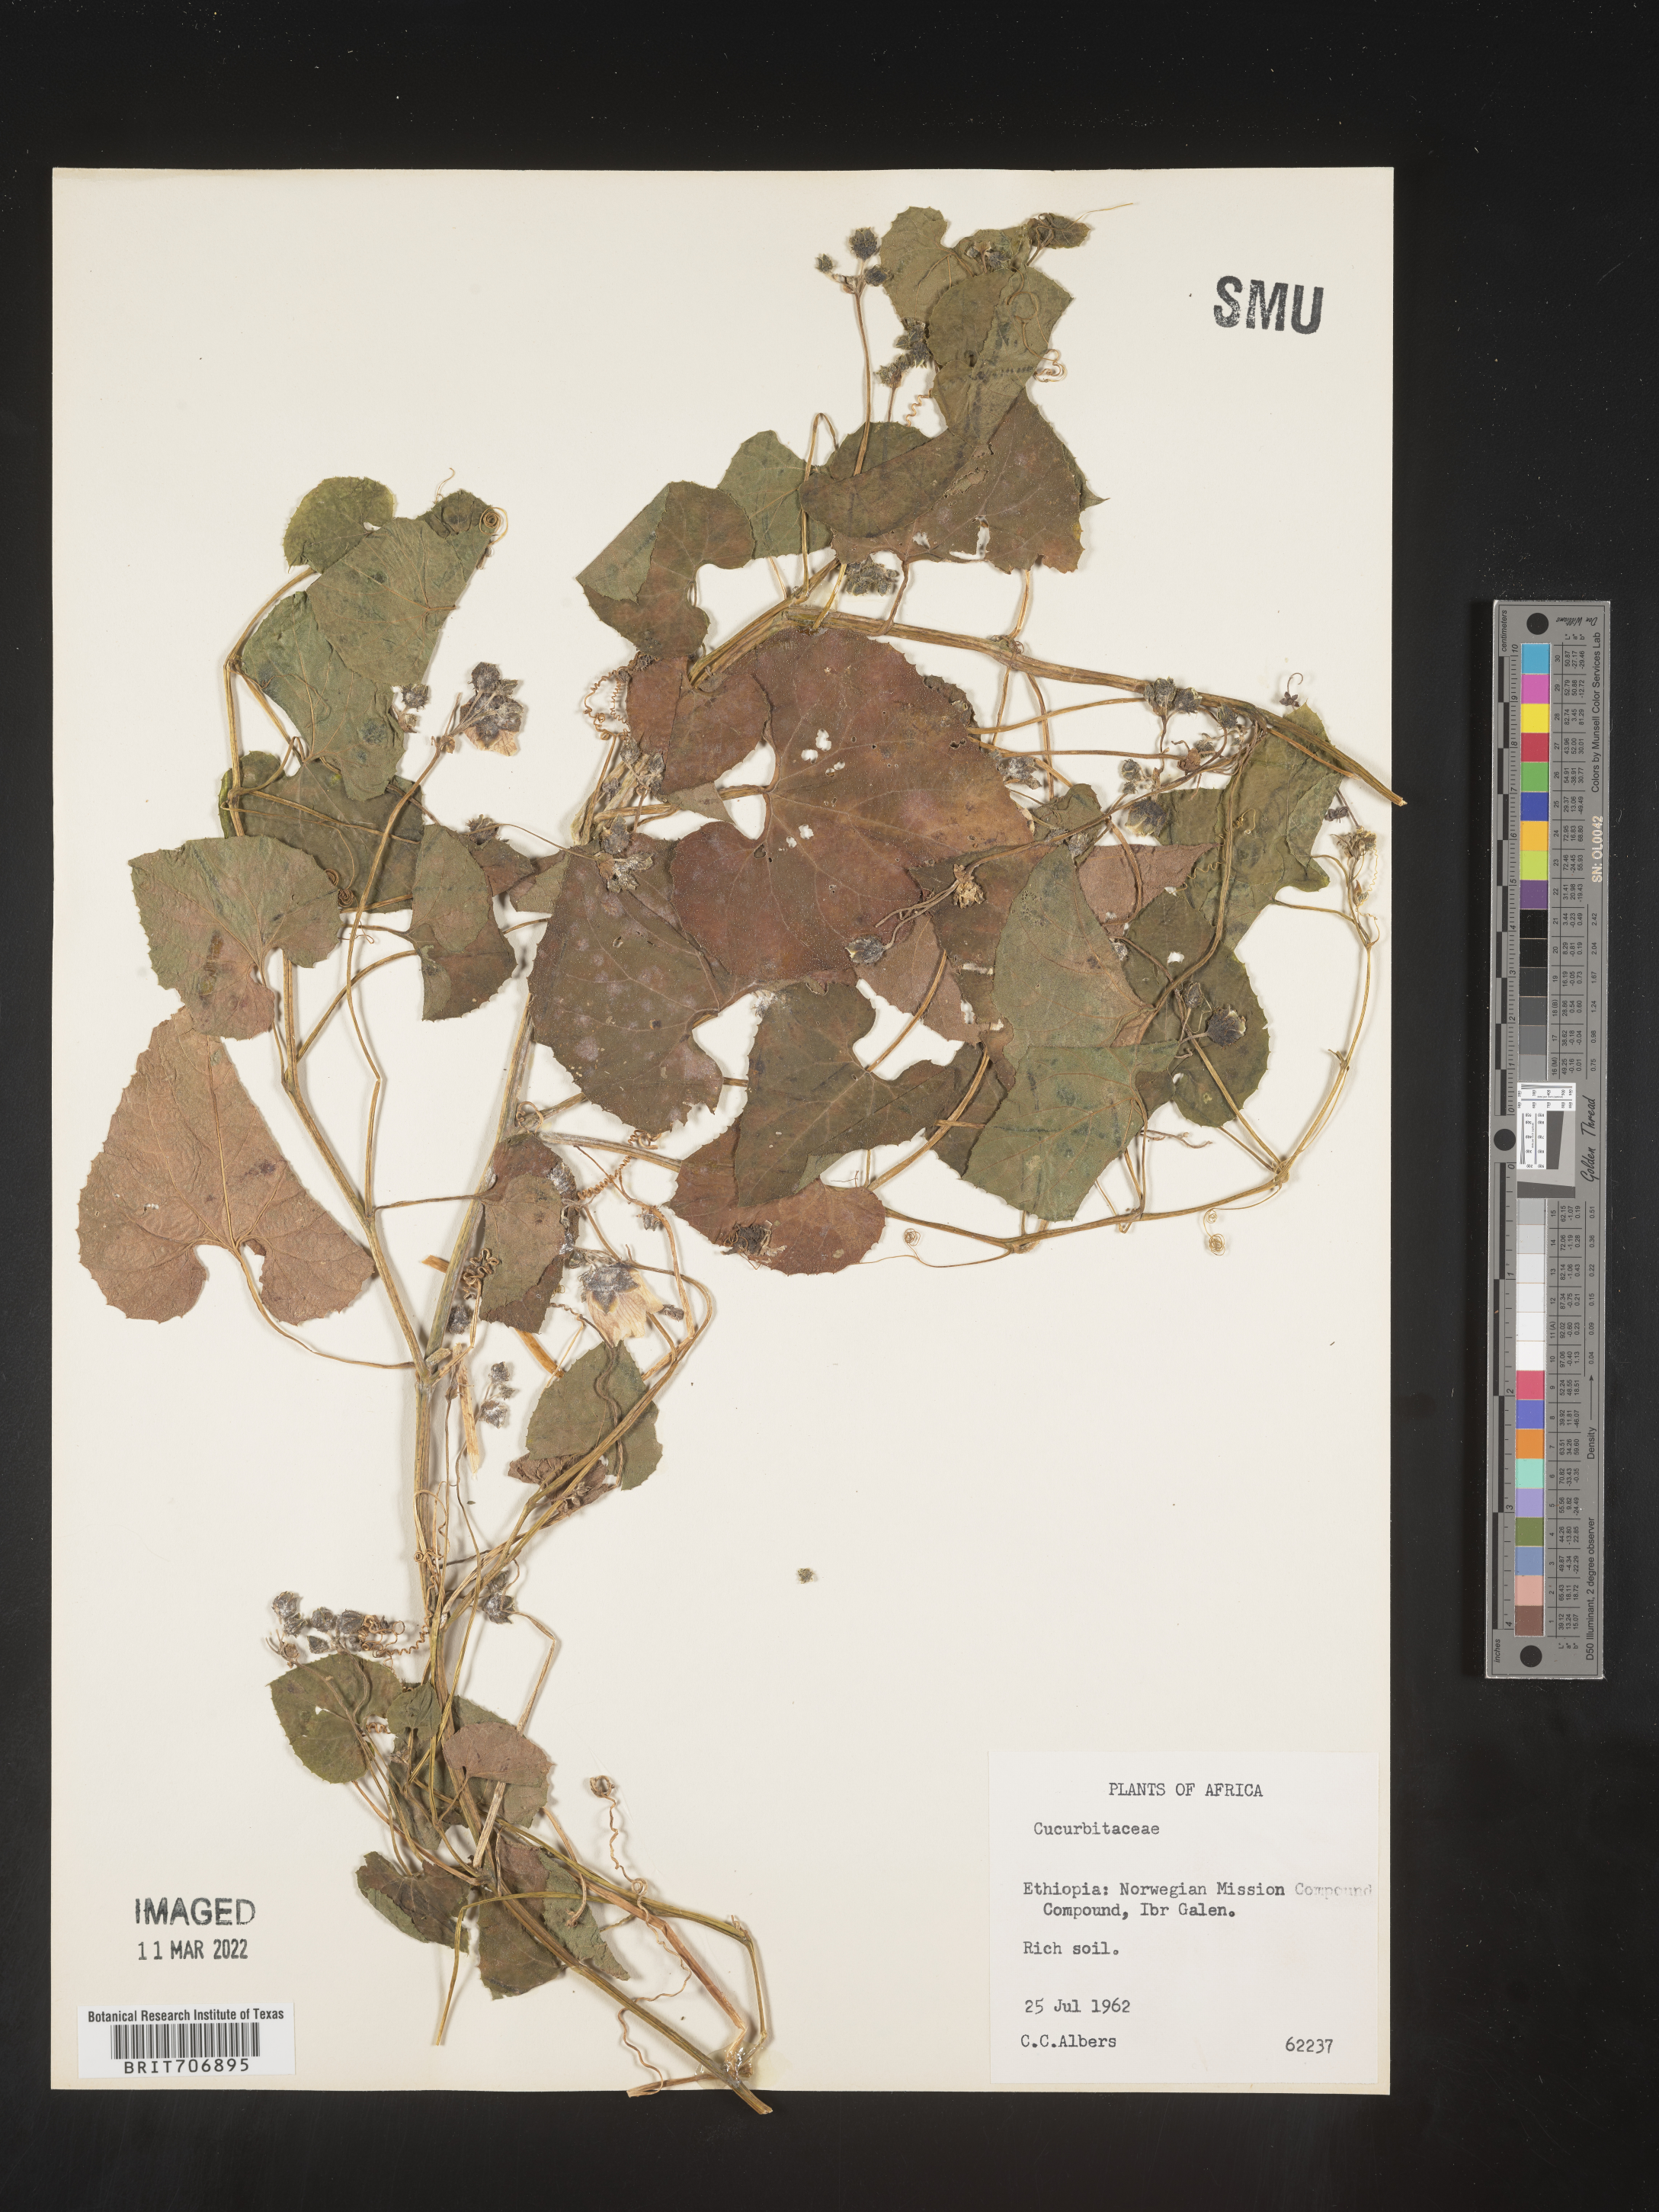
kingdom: Plantae
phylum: Tracheophyta
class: Magnoliopsida
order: Cucurbitales
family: Cucurbitaceae
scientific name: Cucurbitaceae
